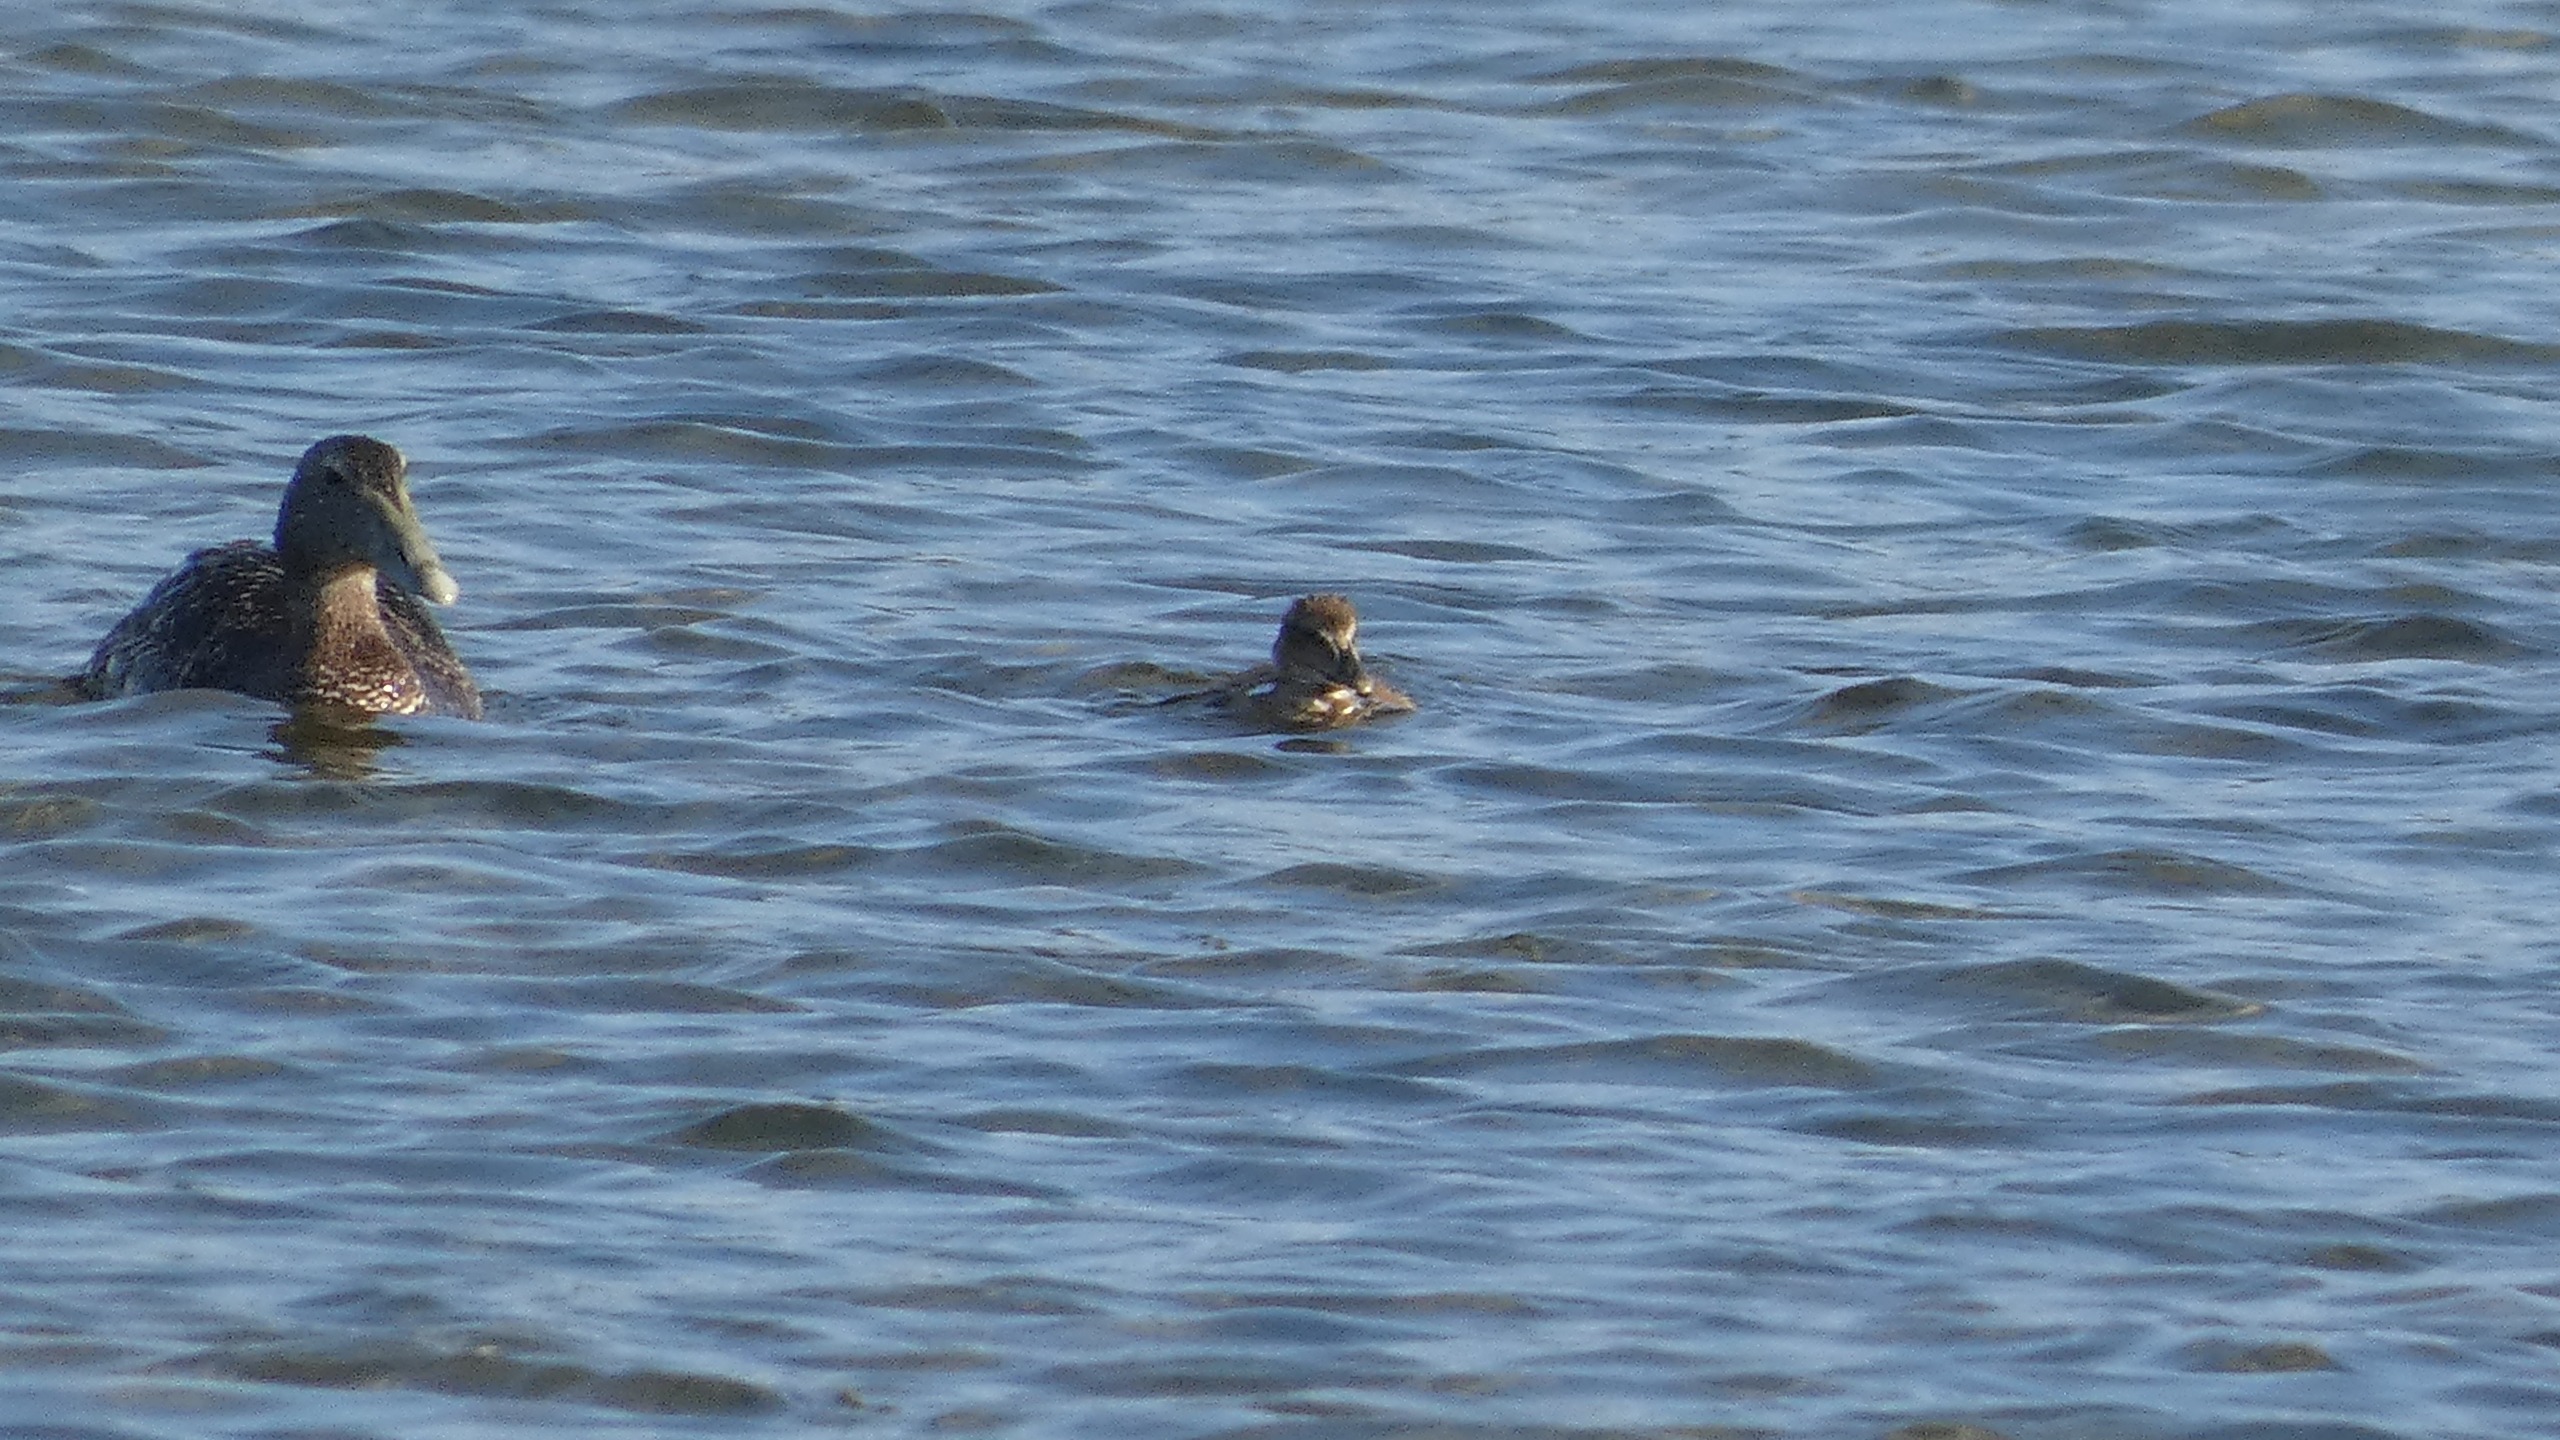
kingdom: Animalia
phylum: Chordata
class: Aves
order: Anseriformes
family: Anatidae
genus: Somateria
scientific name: Somateria mollissima
